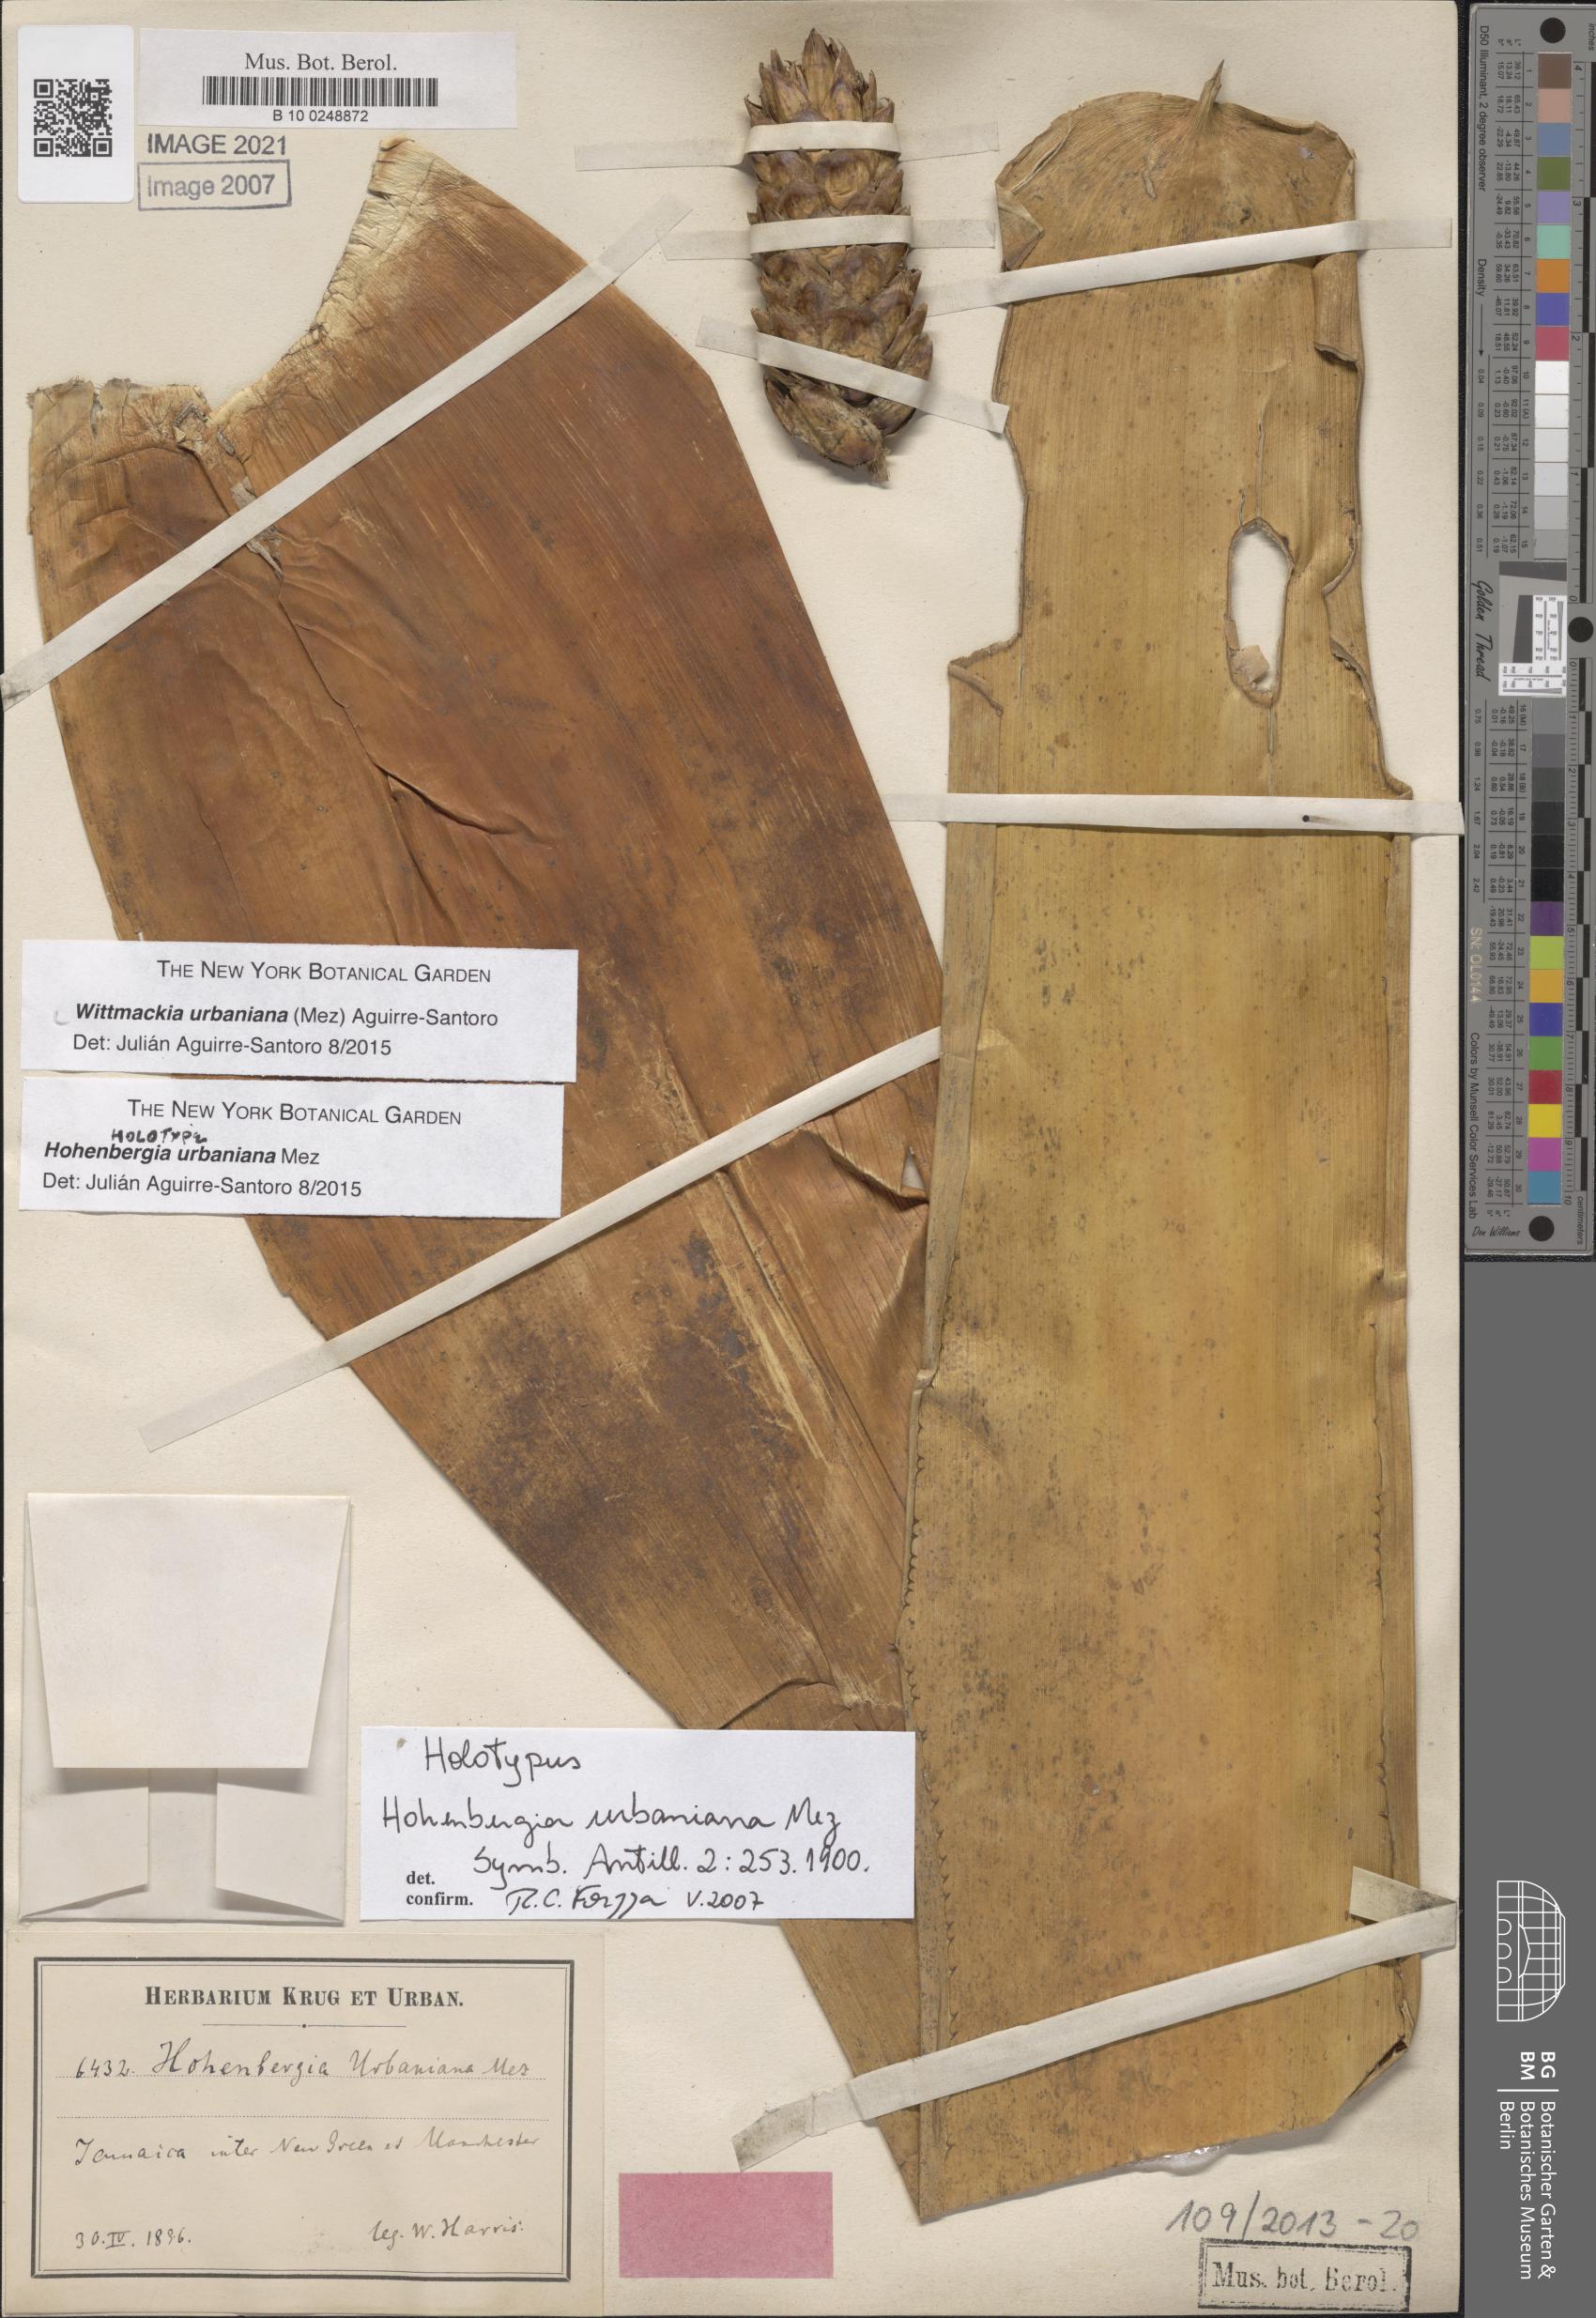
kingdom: Plantae
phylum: Tracheophyta
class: Liliopsida
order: Poales
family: Bromeliaceae
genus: Wittmackia
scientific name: Wittmackia urbaniana
